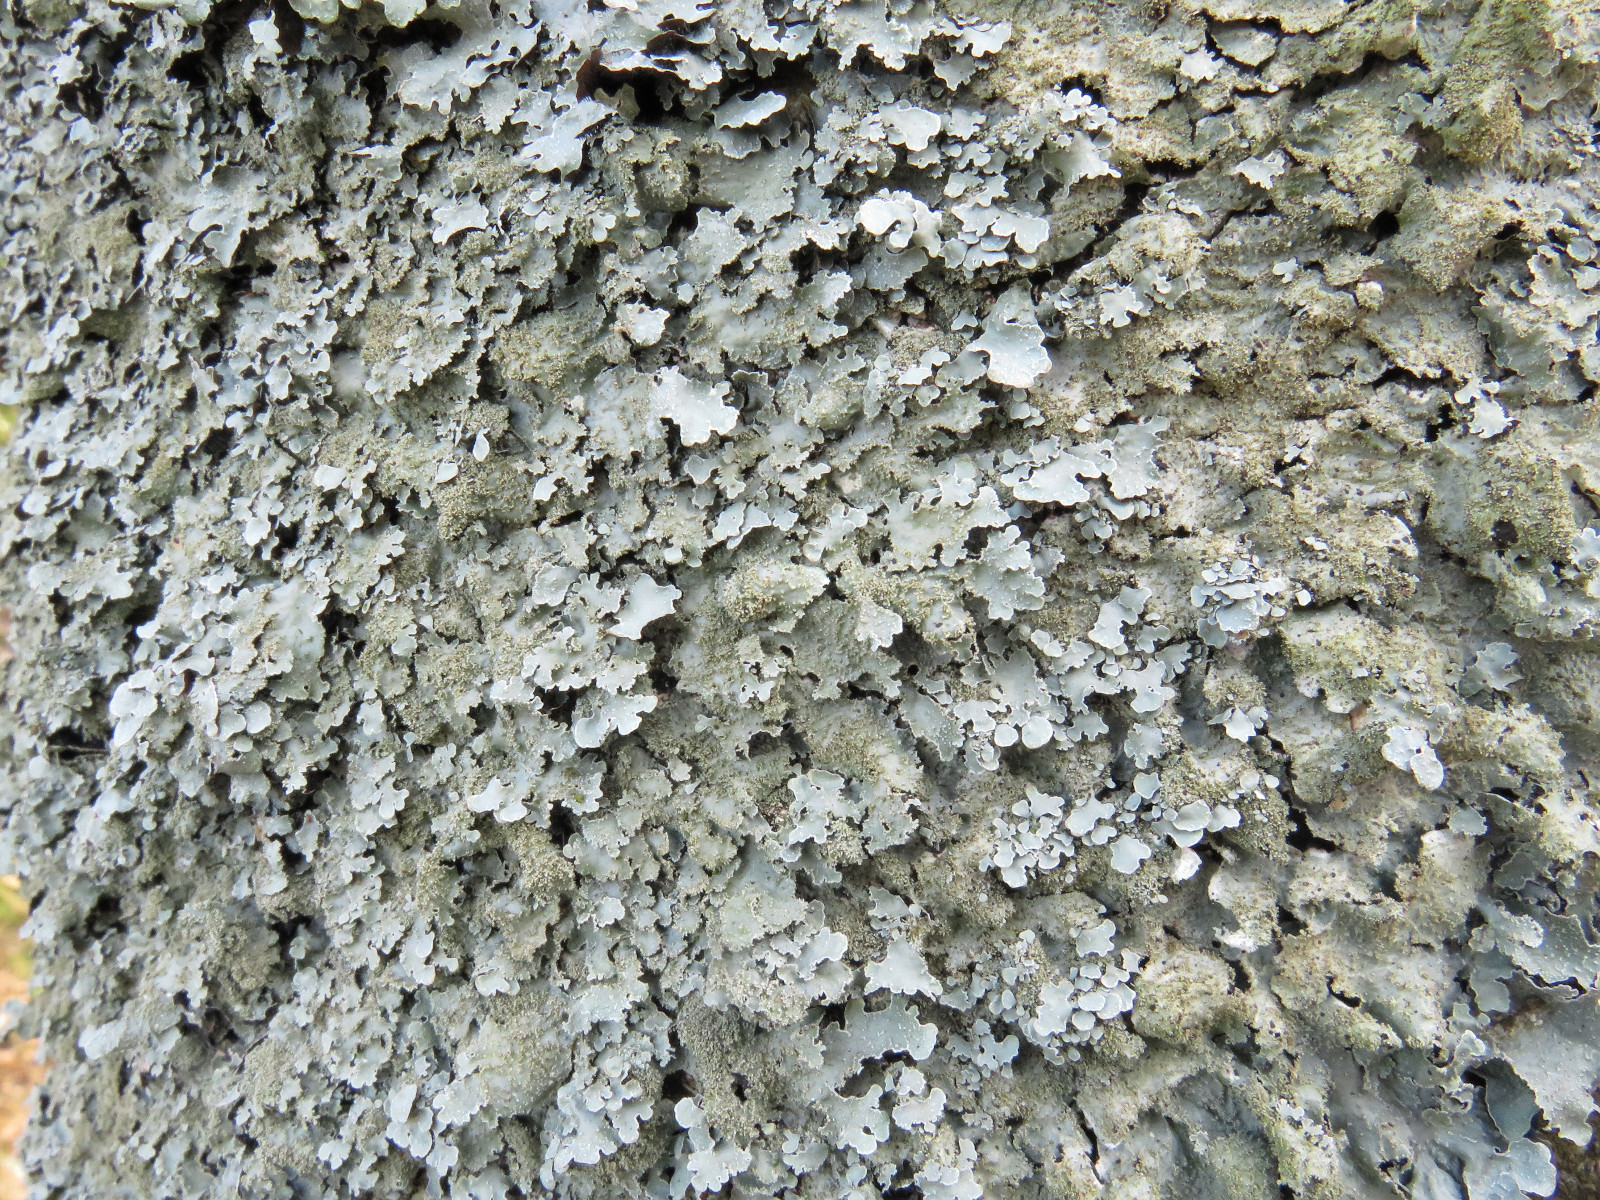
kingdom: Fungi
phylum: Ascomycota
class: Lecanoromycetes
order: Lecanorales
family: Parmeliaceae
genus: Parmelia
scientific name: Parmelia saxatilis
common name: farve-skållav
